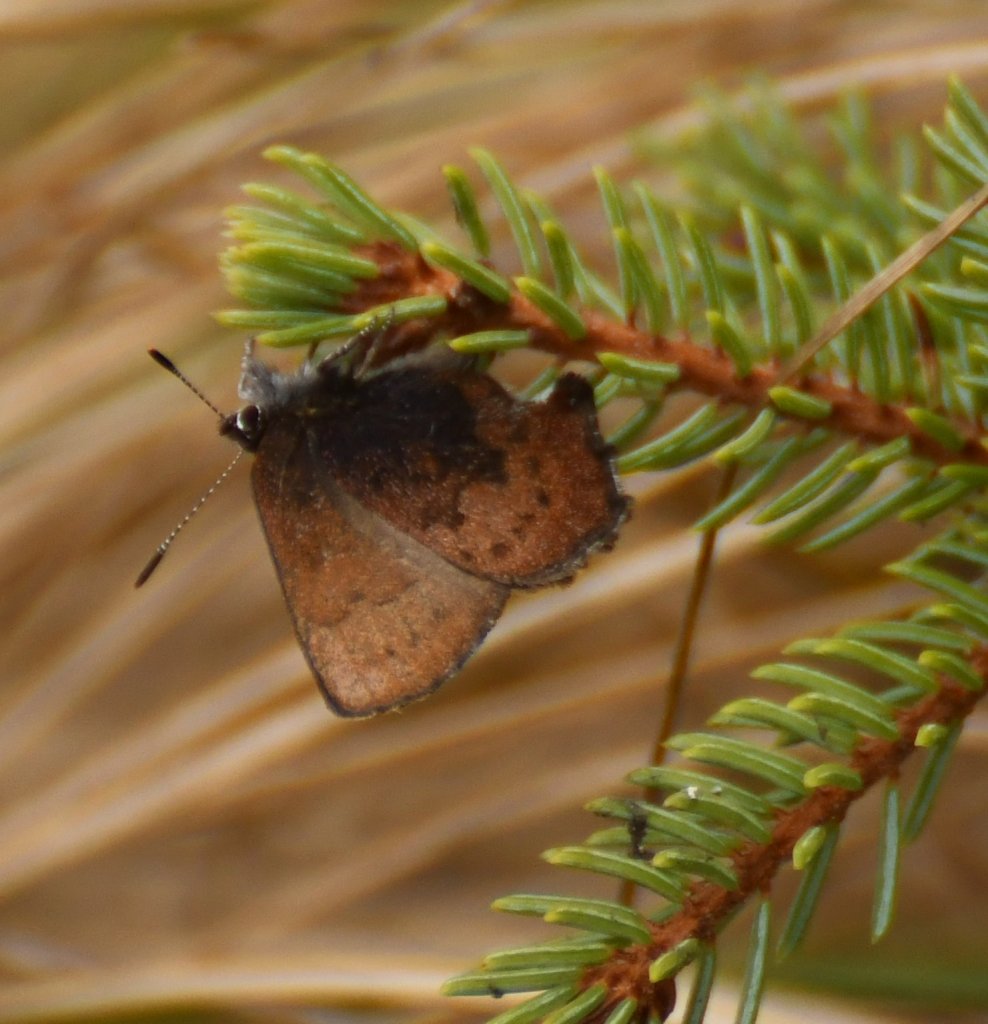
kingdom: Animalia
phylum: Arthropoda
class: Insecta
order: Lepidoptera
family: Lycaenidae
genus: Incisalia
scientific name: Incisalia irioides
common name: Brown Elfin
